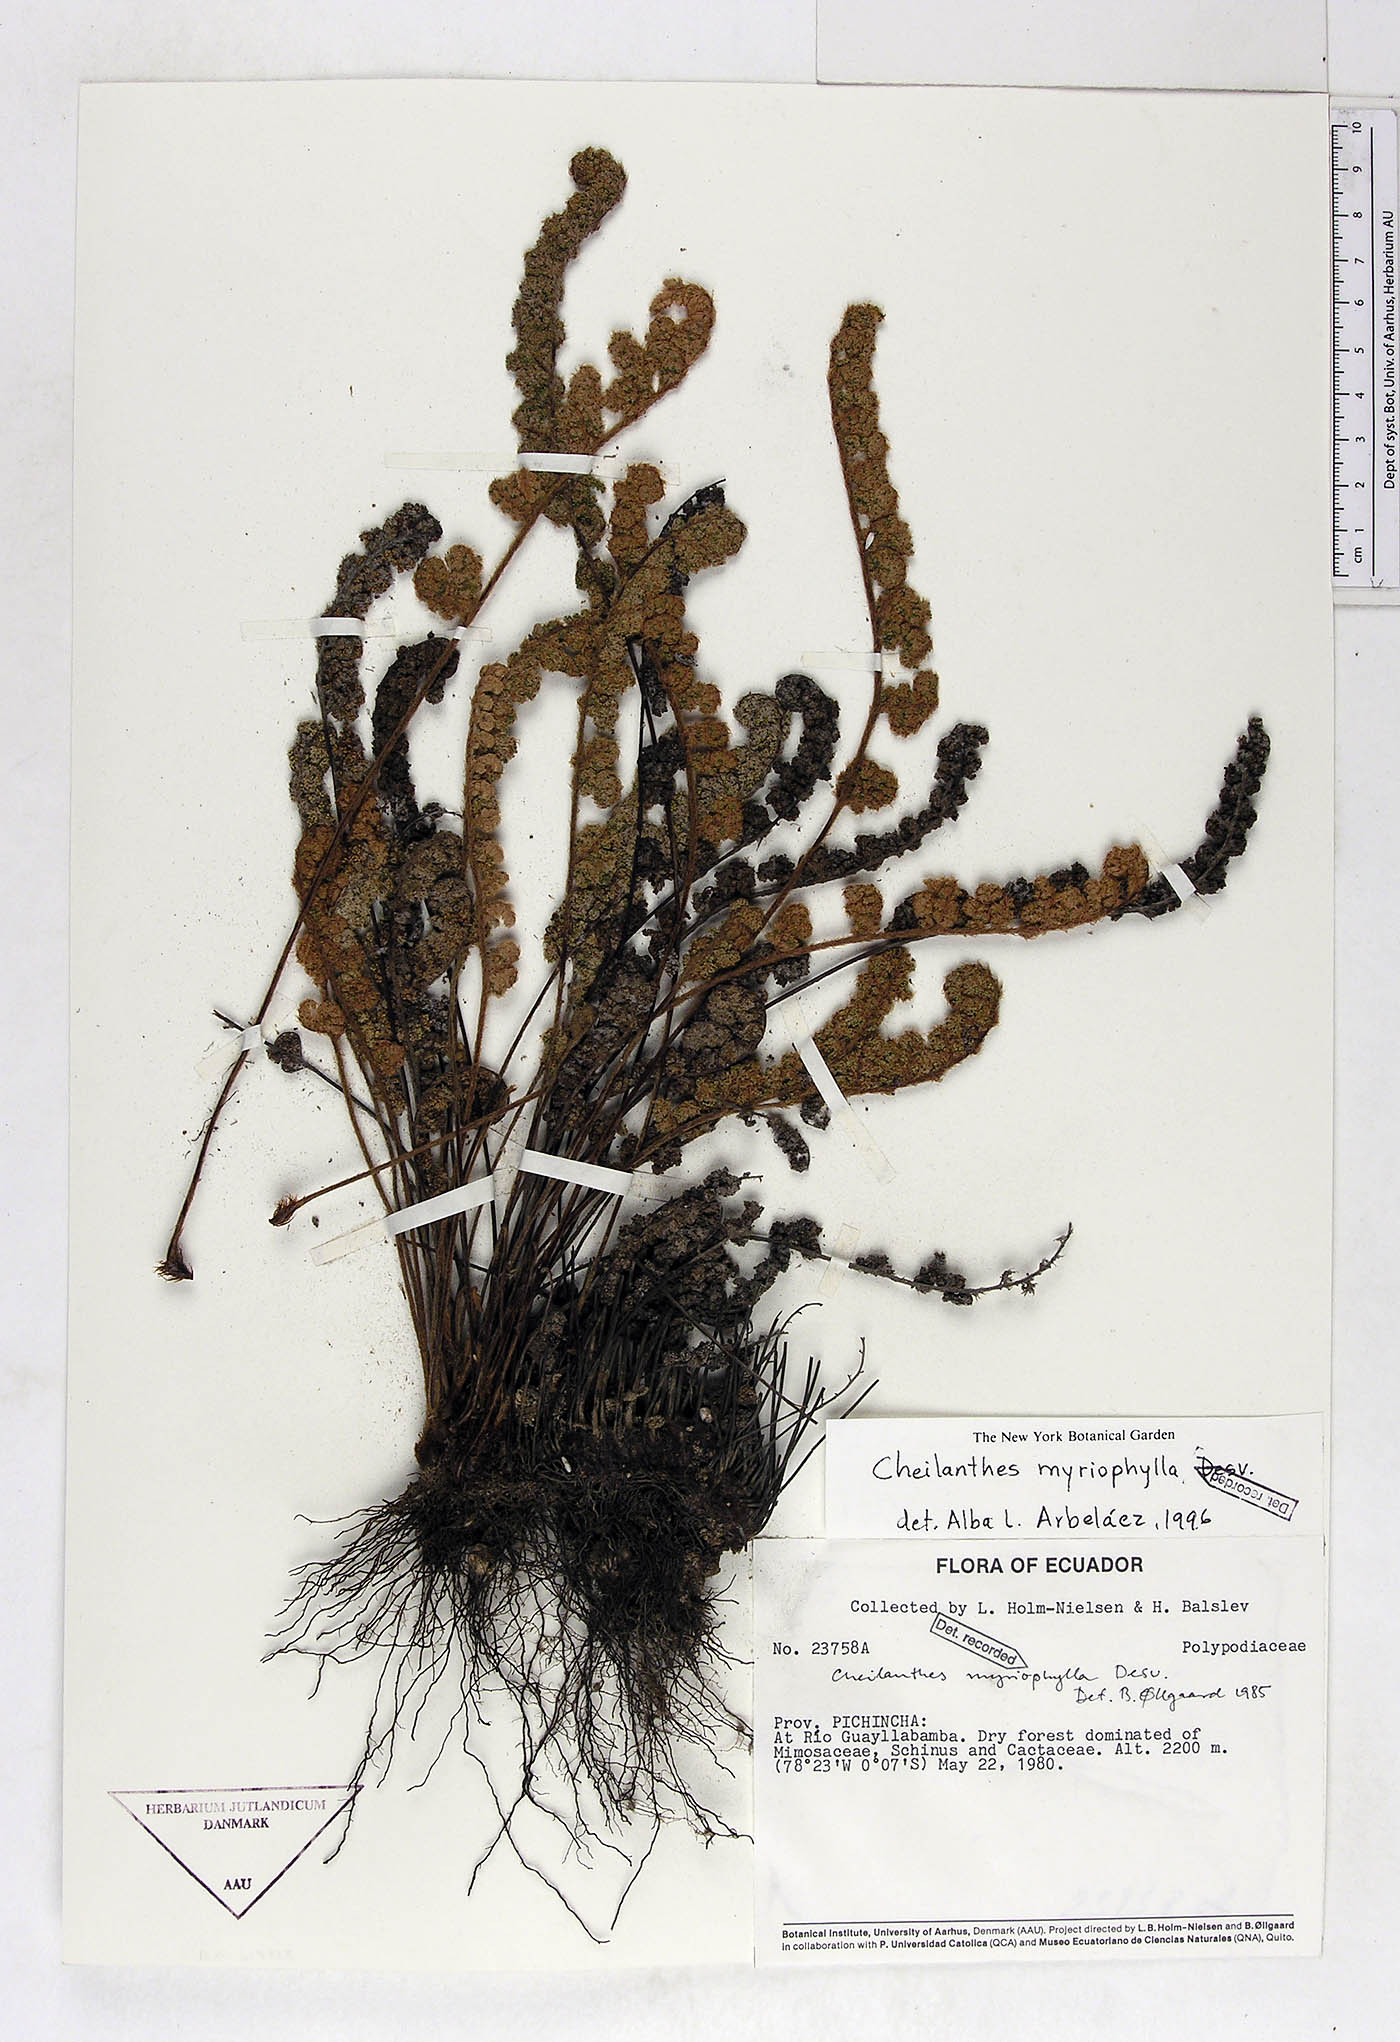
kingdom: Plantae
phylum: Tracheophyta
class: Polypodiopsida
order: Polypodiales
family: Pteridaceae
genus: Myriopteris
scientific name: Myriopteris myriophylla
